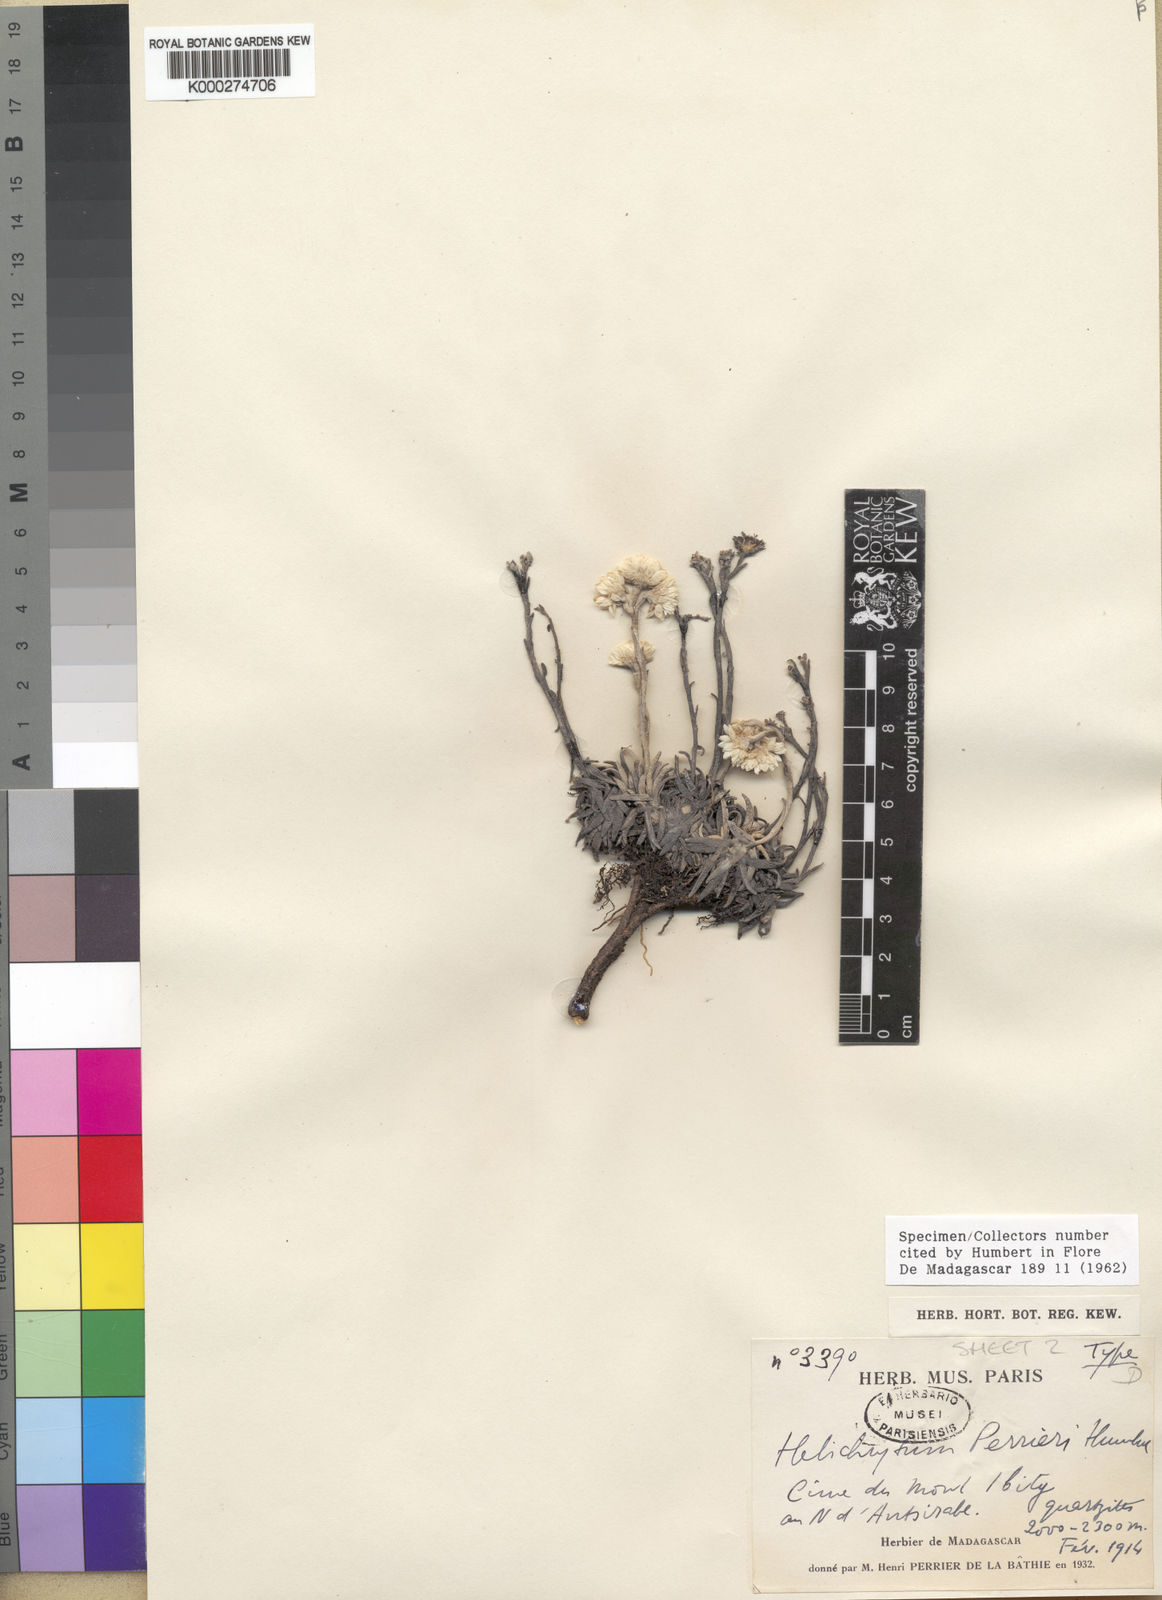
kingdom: Plantae
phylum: Tracheophyta
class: Magnoliopsida
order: Asterales
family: Asteraceae
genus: Helichrysum
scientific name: Helichrysum perrieri
